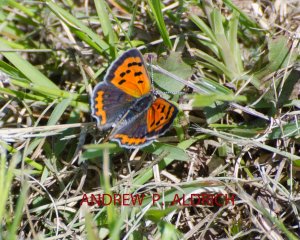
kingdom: Animalia
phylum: Arthropoda
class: Insecta
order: Lepidoptera
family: Lycaenidae
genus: Lycaena
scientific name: Lycaena phlaeas
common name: American Copper
